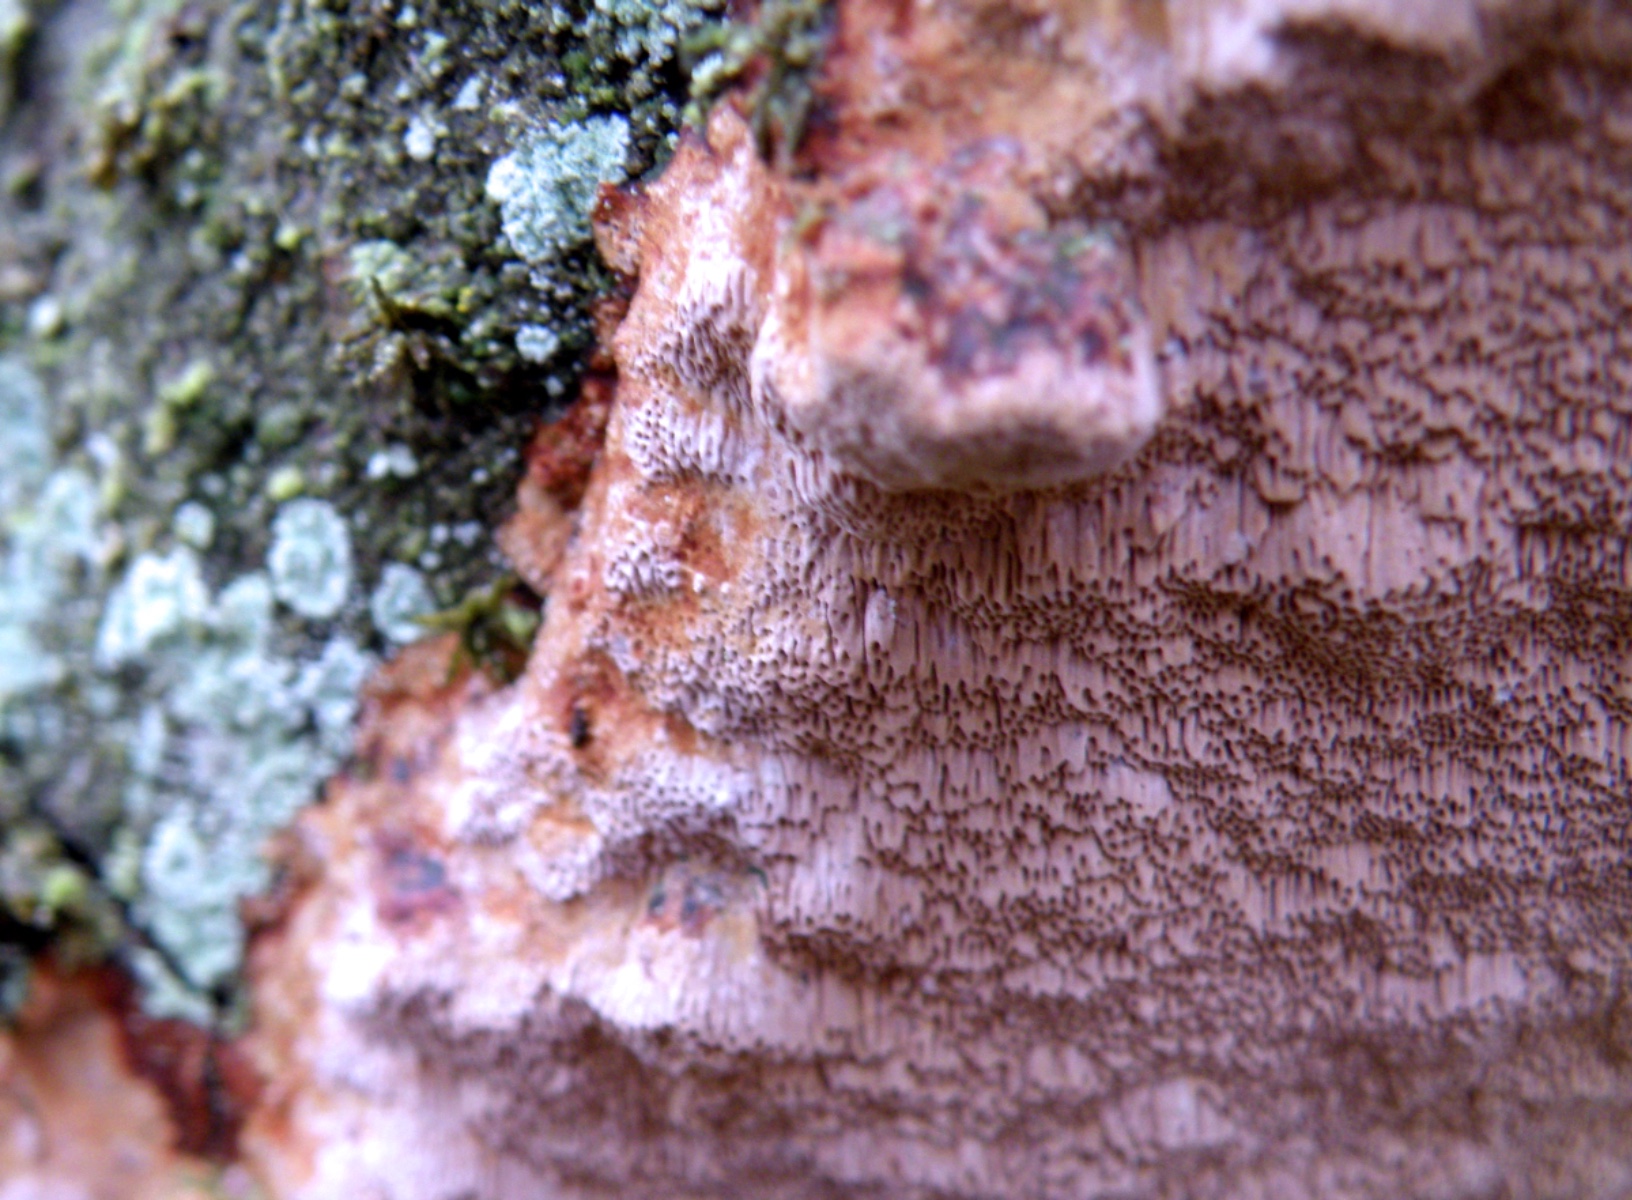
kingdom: Fungi
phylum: Basidiomycota
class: Agaricomycetes
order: Hymenochaetales
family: Hymenochaetaceae
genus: Fuscoporia
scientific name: Fuscoporia ferrea
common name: skorpe-ildporesvamp
